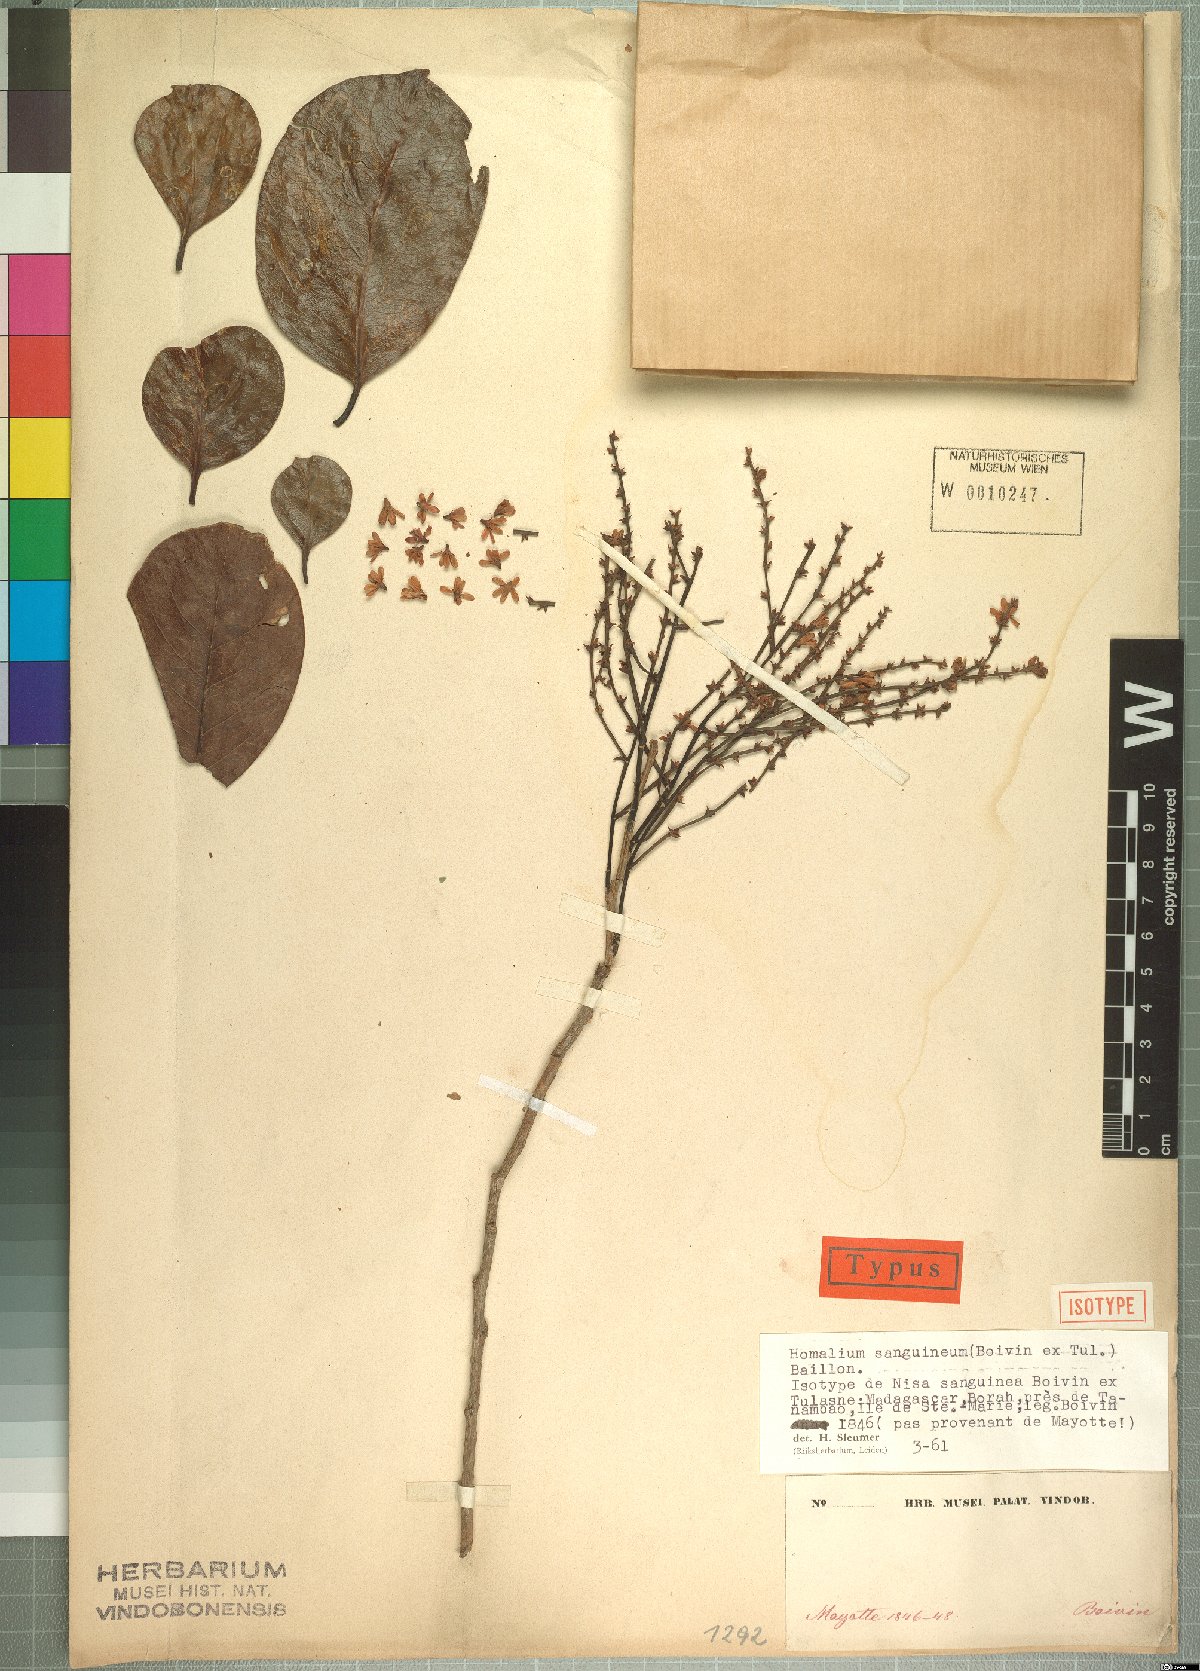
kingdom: Plantae
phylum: Tracheophyta
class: Magnoliopsida
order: Malpighiales
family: Salicaceae
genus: Homalium
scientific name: Homalium sanguineum
